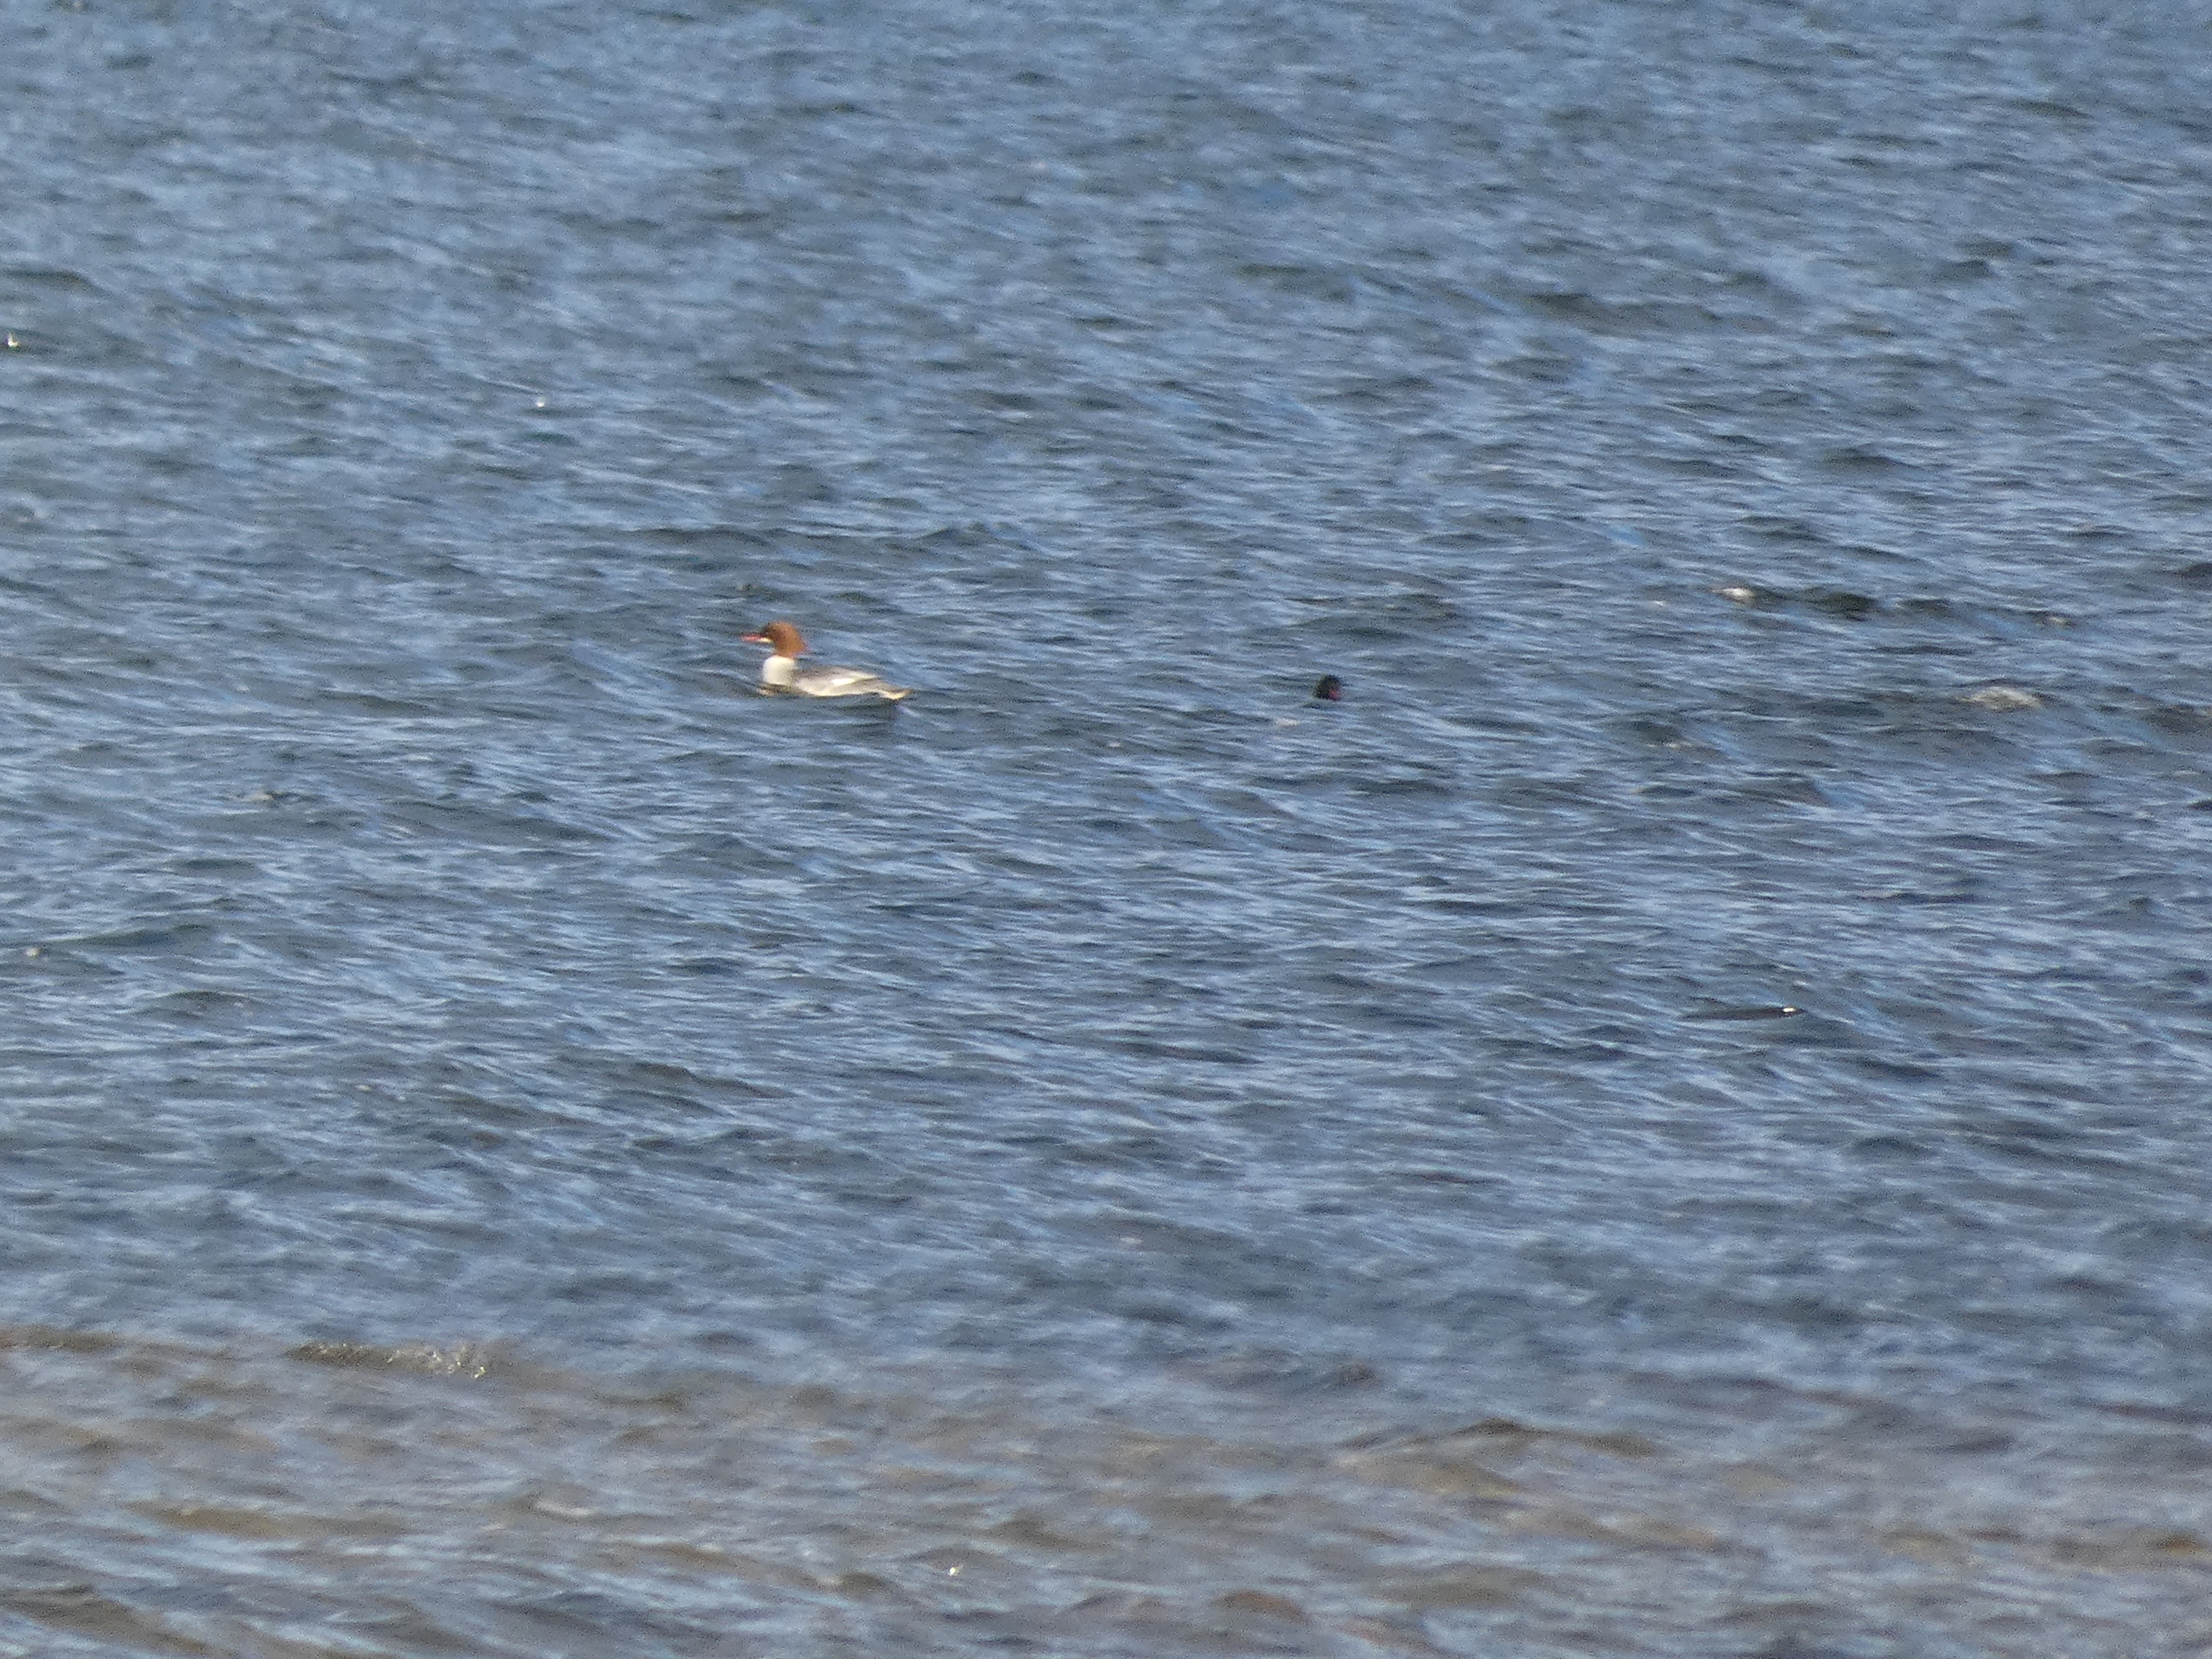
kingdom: Animalia
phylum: Chordata
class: Aves
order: Anseriformes
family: Anatidae
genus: Mergus
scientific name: Mergus merganser
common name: Stor skallesluger
